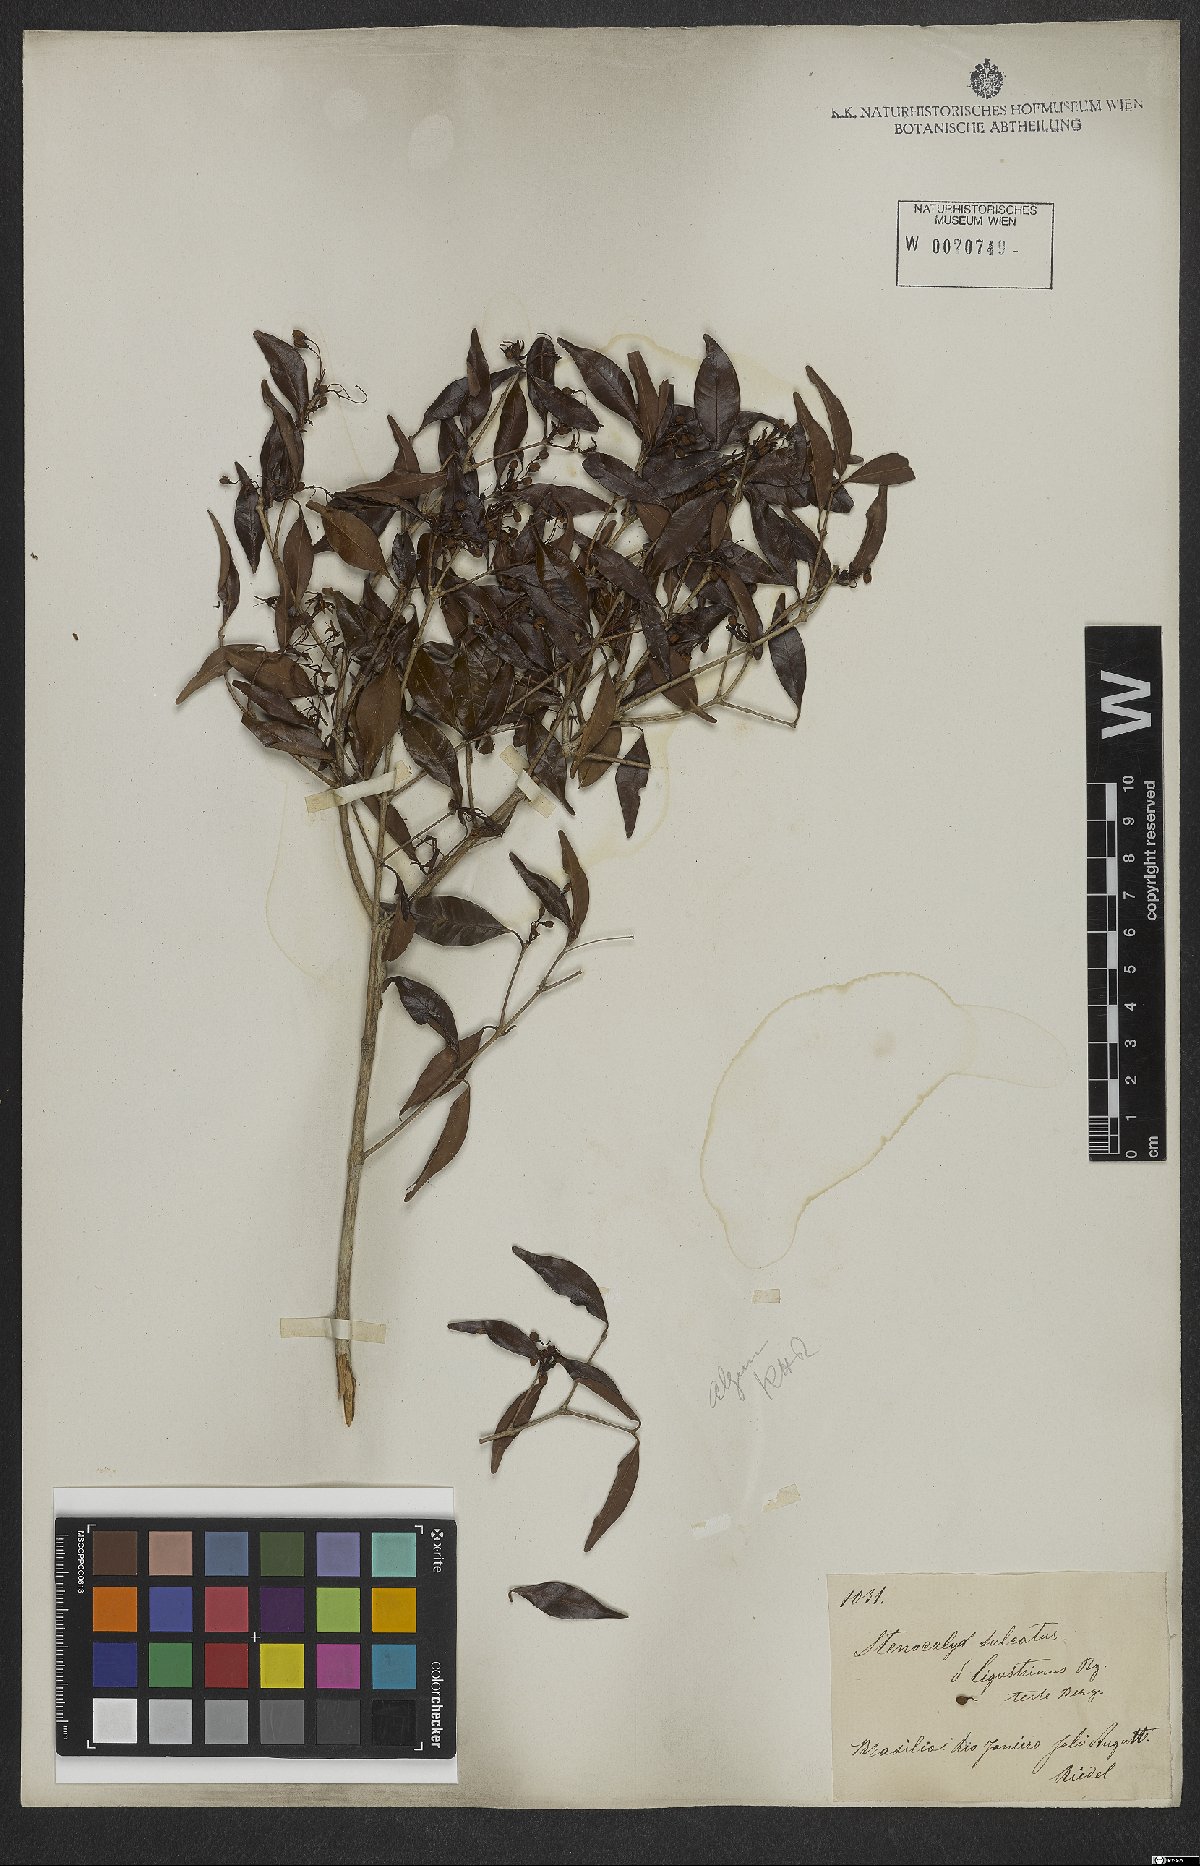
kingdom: Plantae
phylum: Tracheophyta
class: Magnoliopsida
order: Myrtales
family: Myrtaceae
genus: Eugenia
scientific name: Eugenia sulcata
